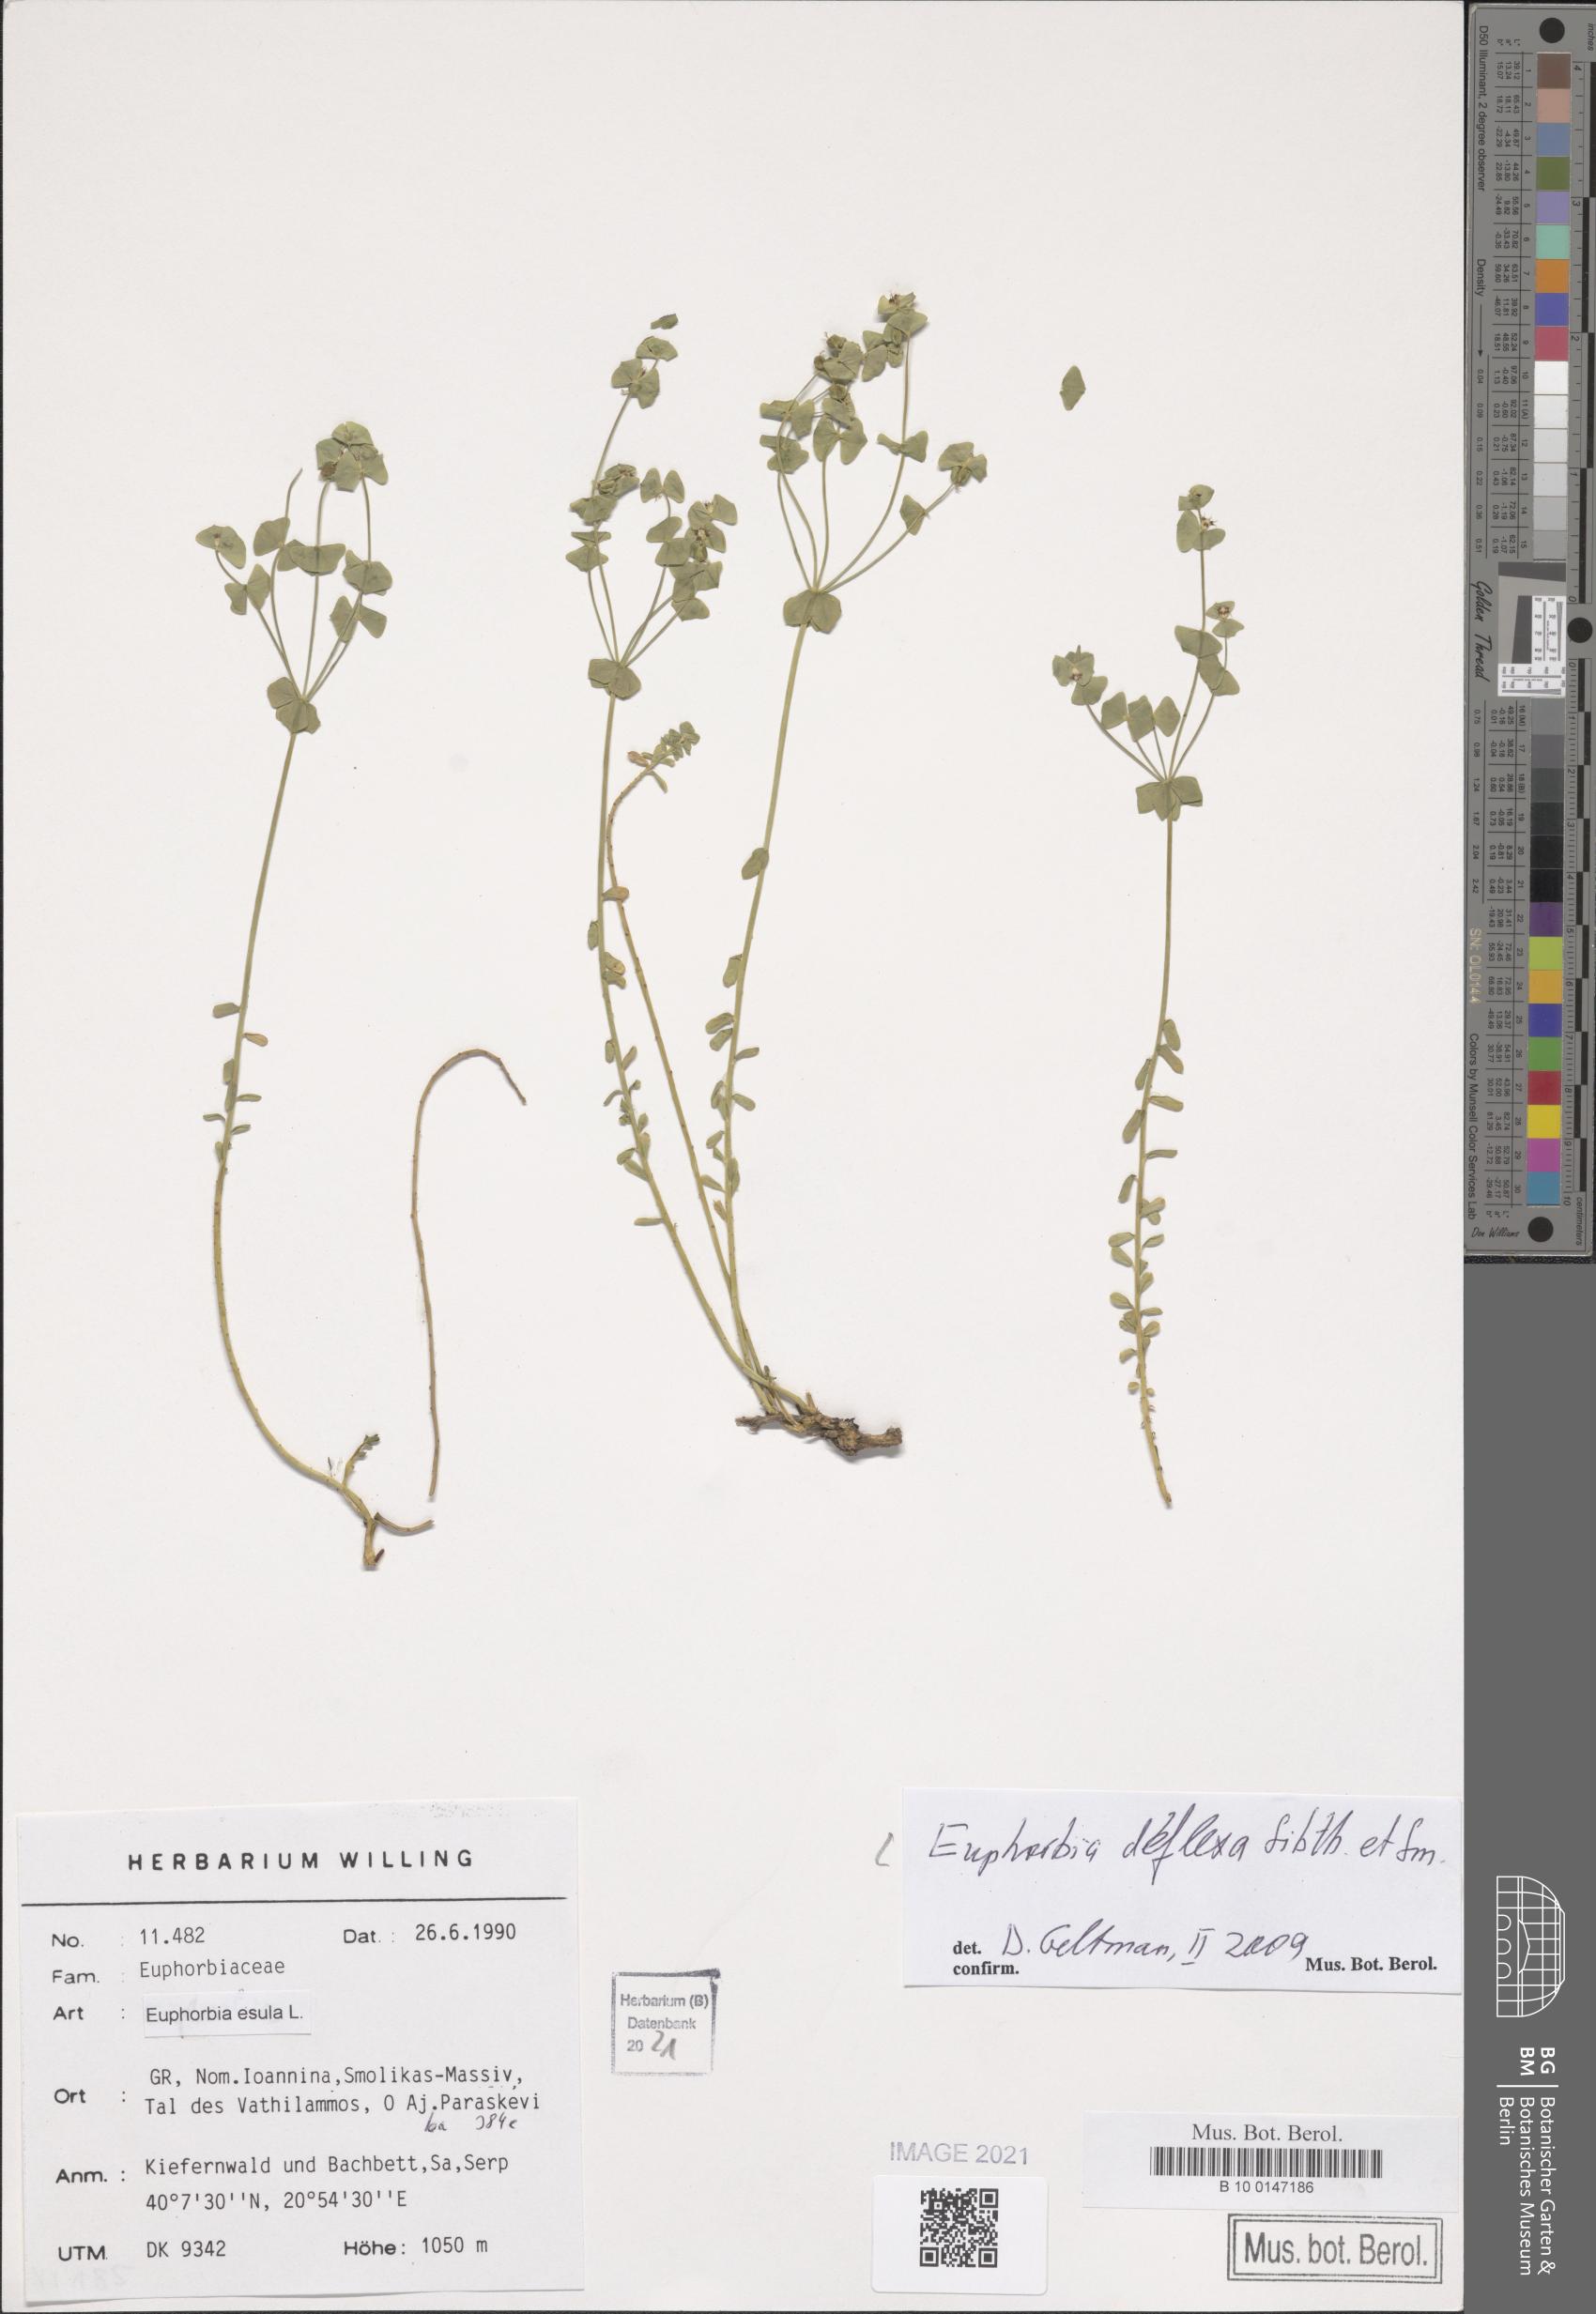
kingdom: Plantae
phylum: Tracheophyta
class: Magnoliopsida
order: Malpighiales
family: Euphorbiaceae
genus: Euphorbia
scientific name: Euphorbia deflexa
